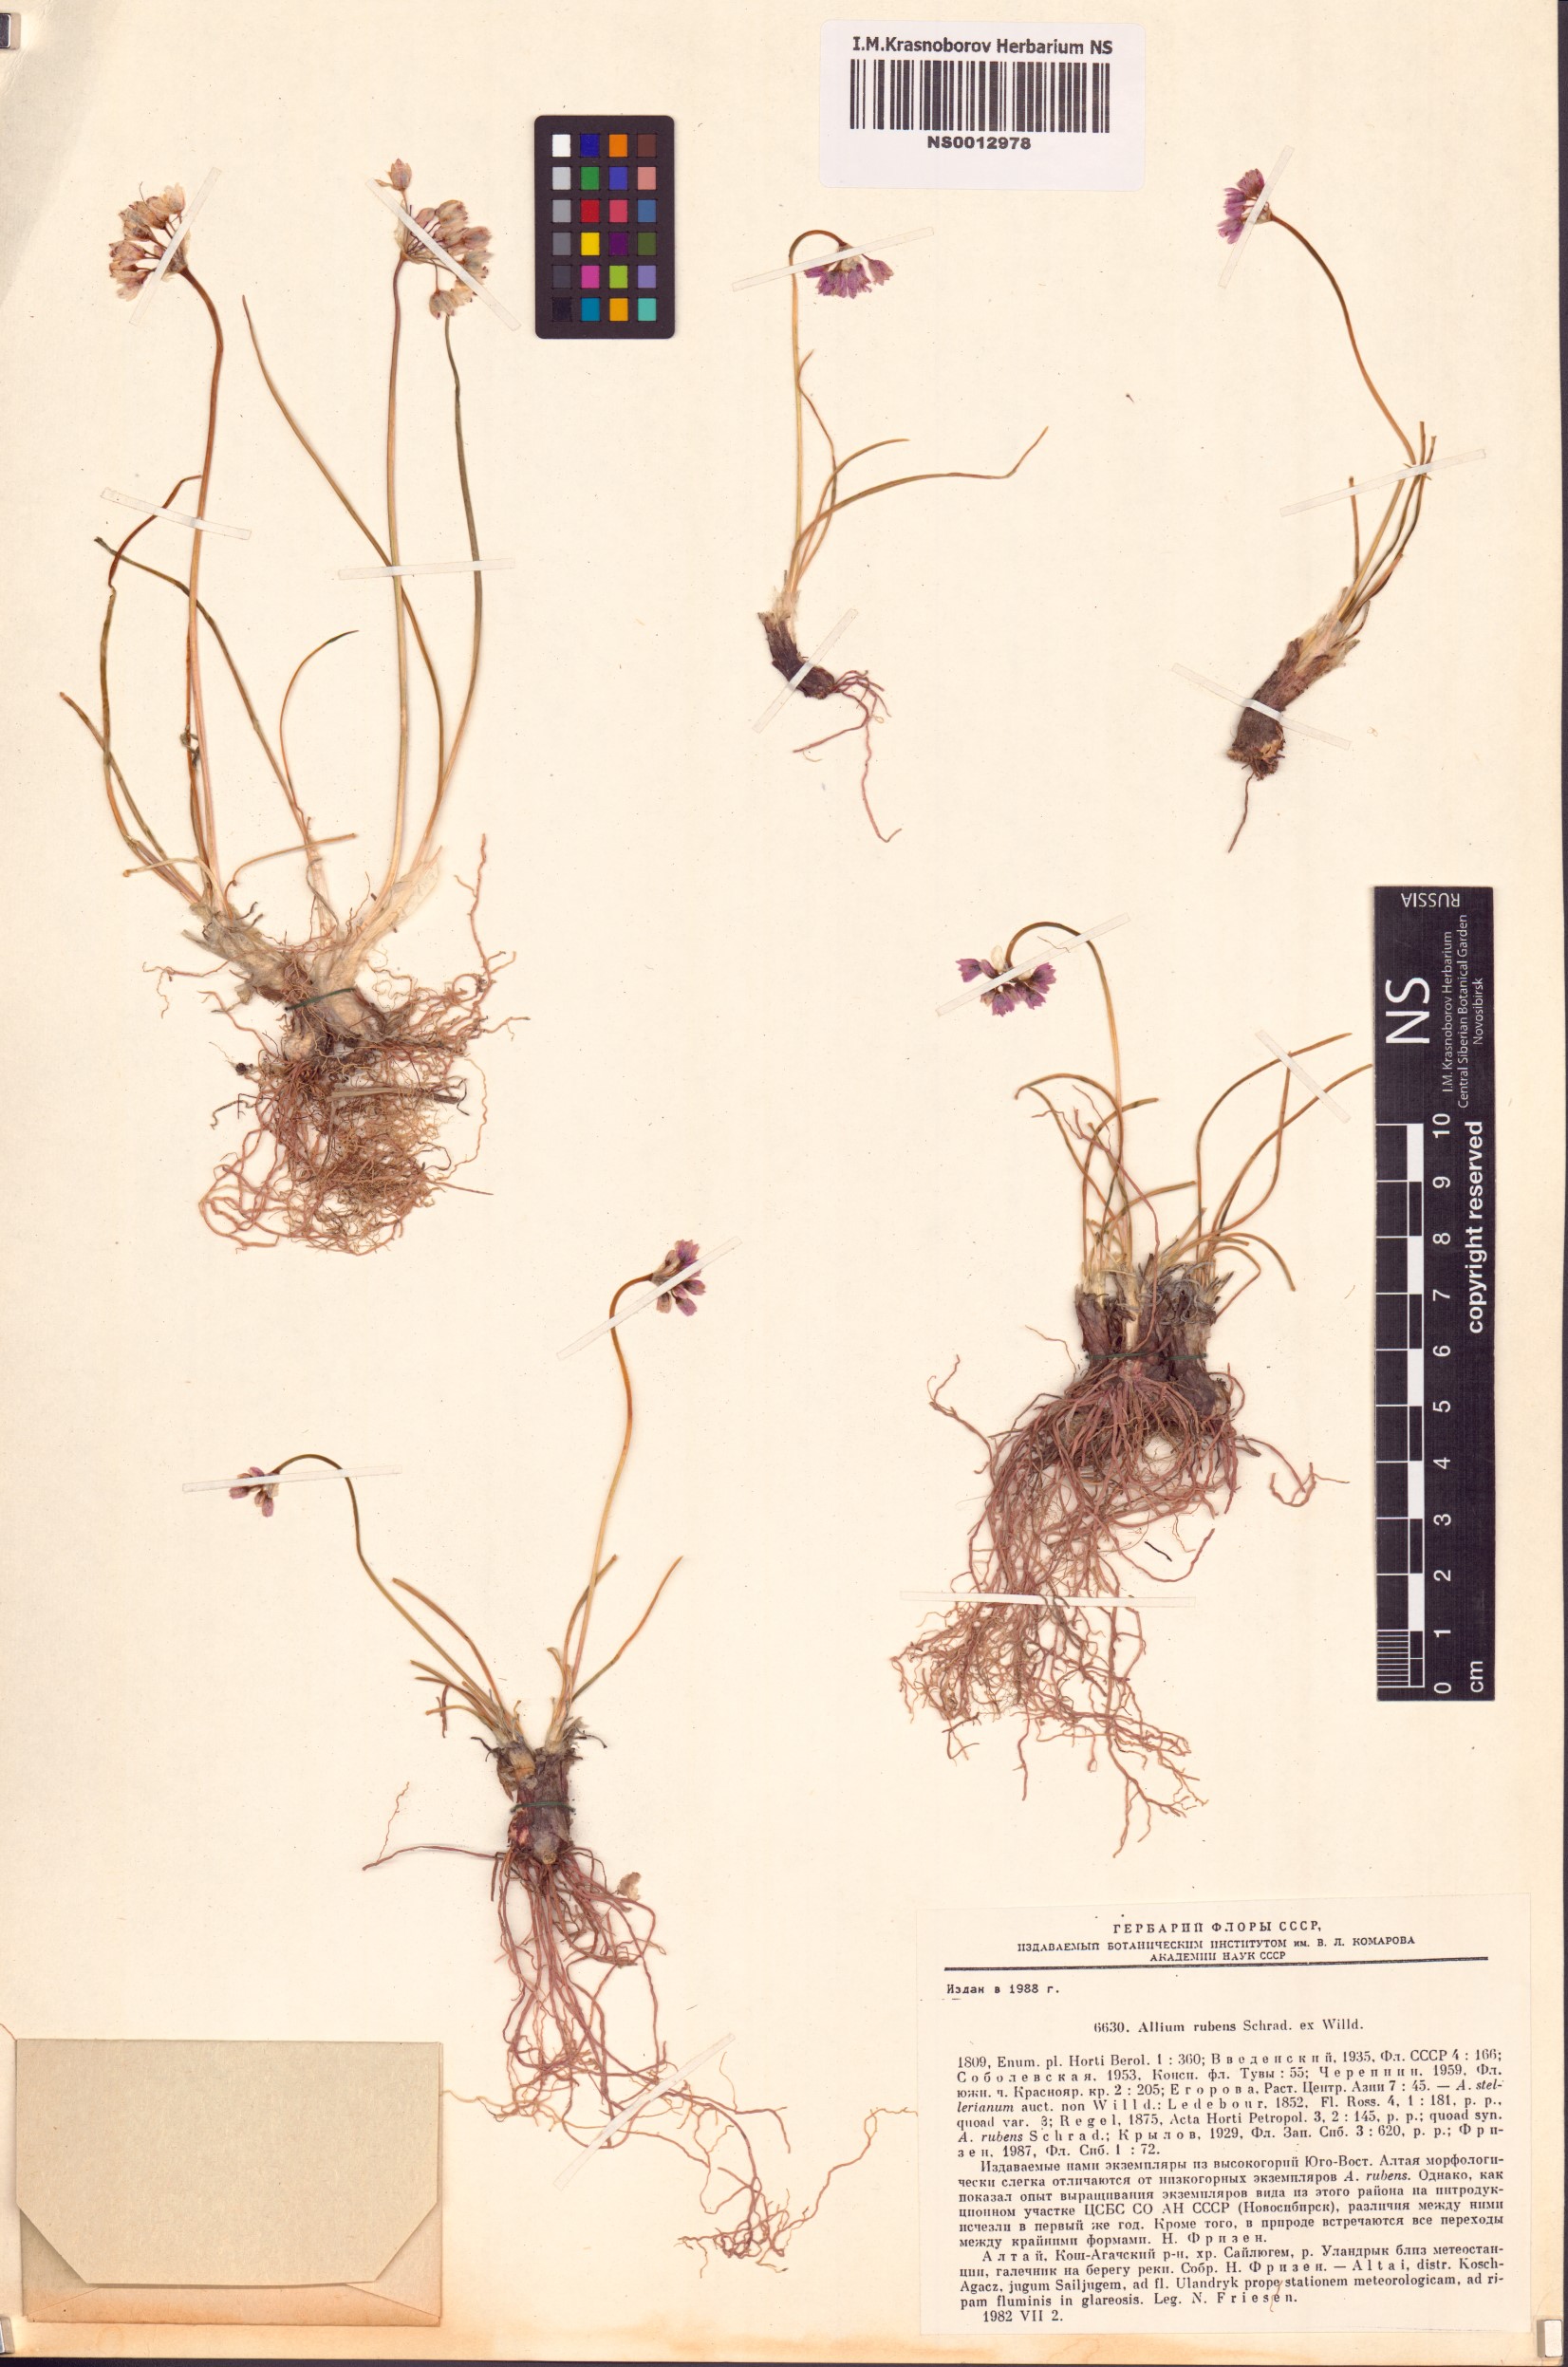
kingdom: Plantae
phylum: Tracheophyta
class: Liliopsida
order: Asparagales
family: Amaryllidaceae
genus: Allium
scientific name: Allium rubens
